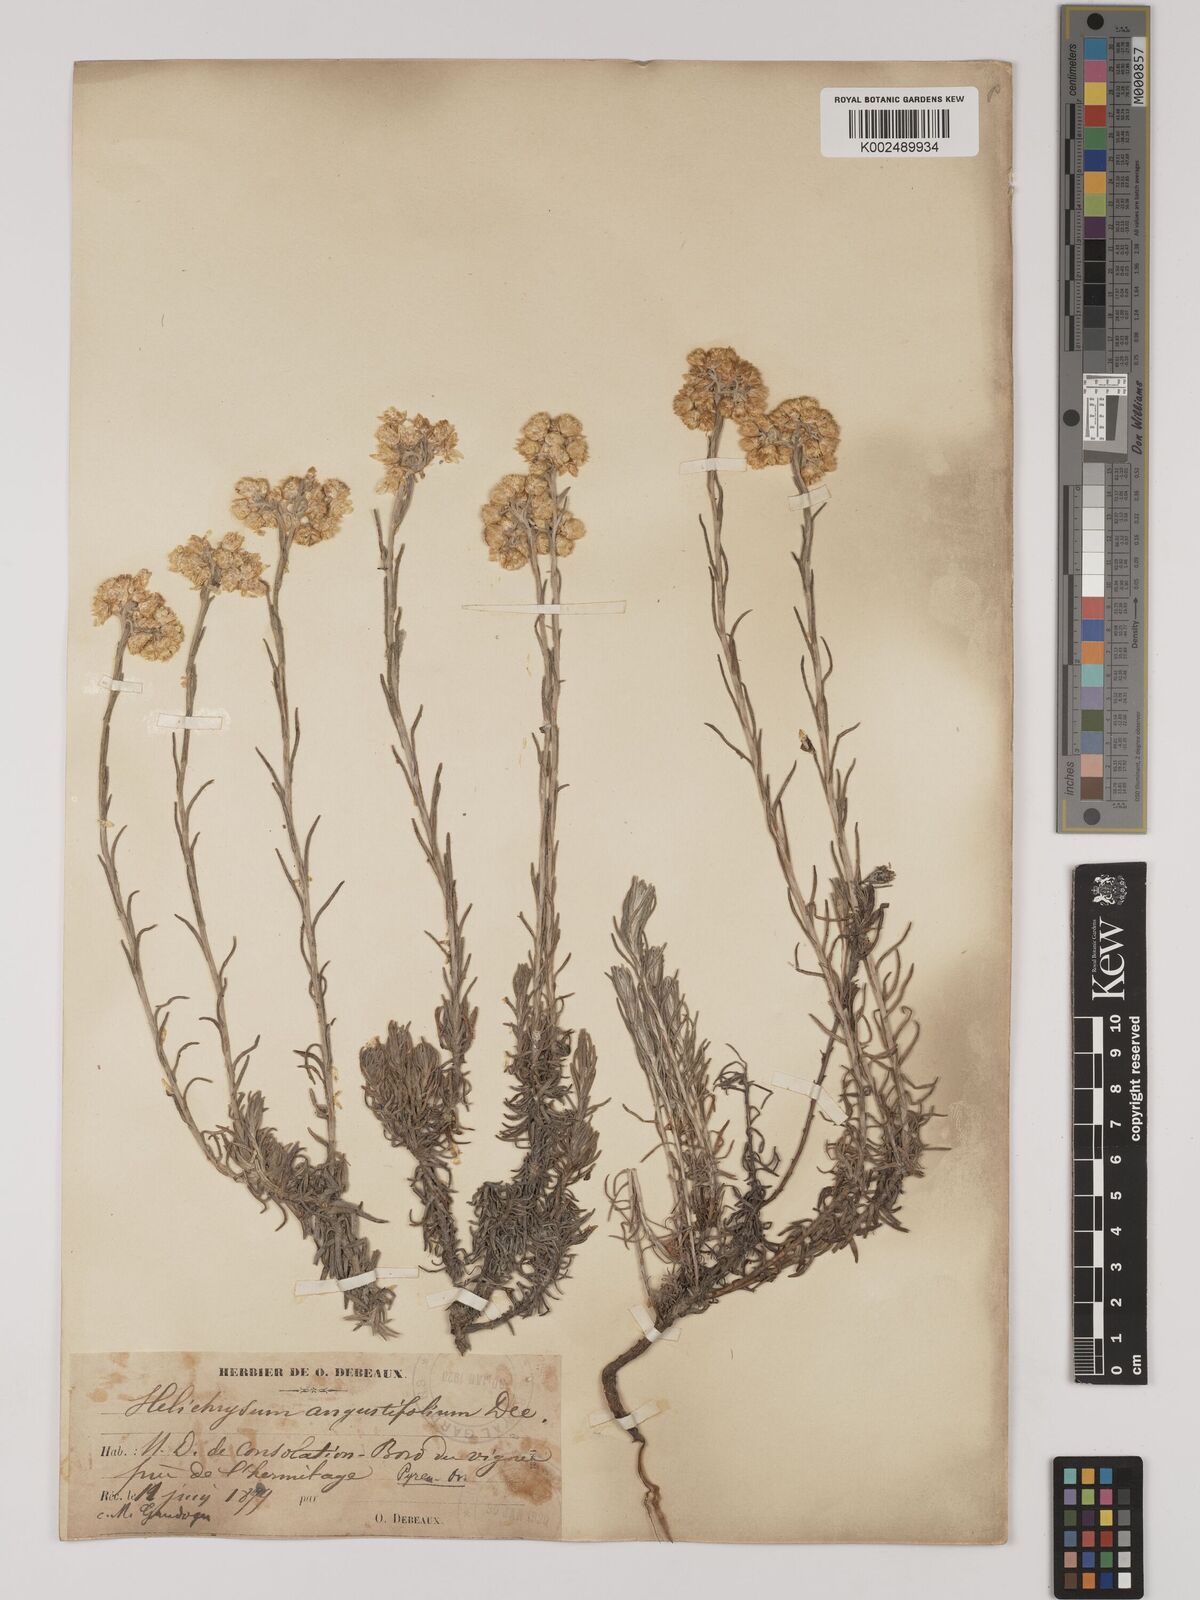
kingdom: Plantae
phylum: Tracheophyta
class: Magnoliopsida
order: Asterales
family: Asteraceae
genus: Helichrysum
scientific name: Helichrysum
